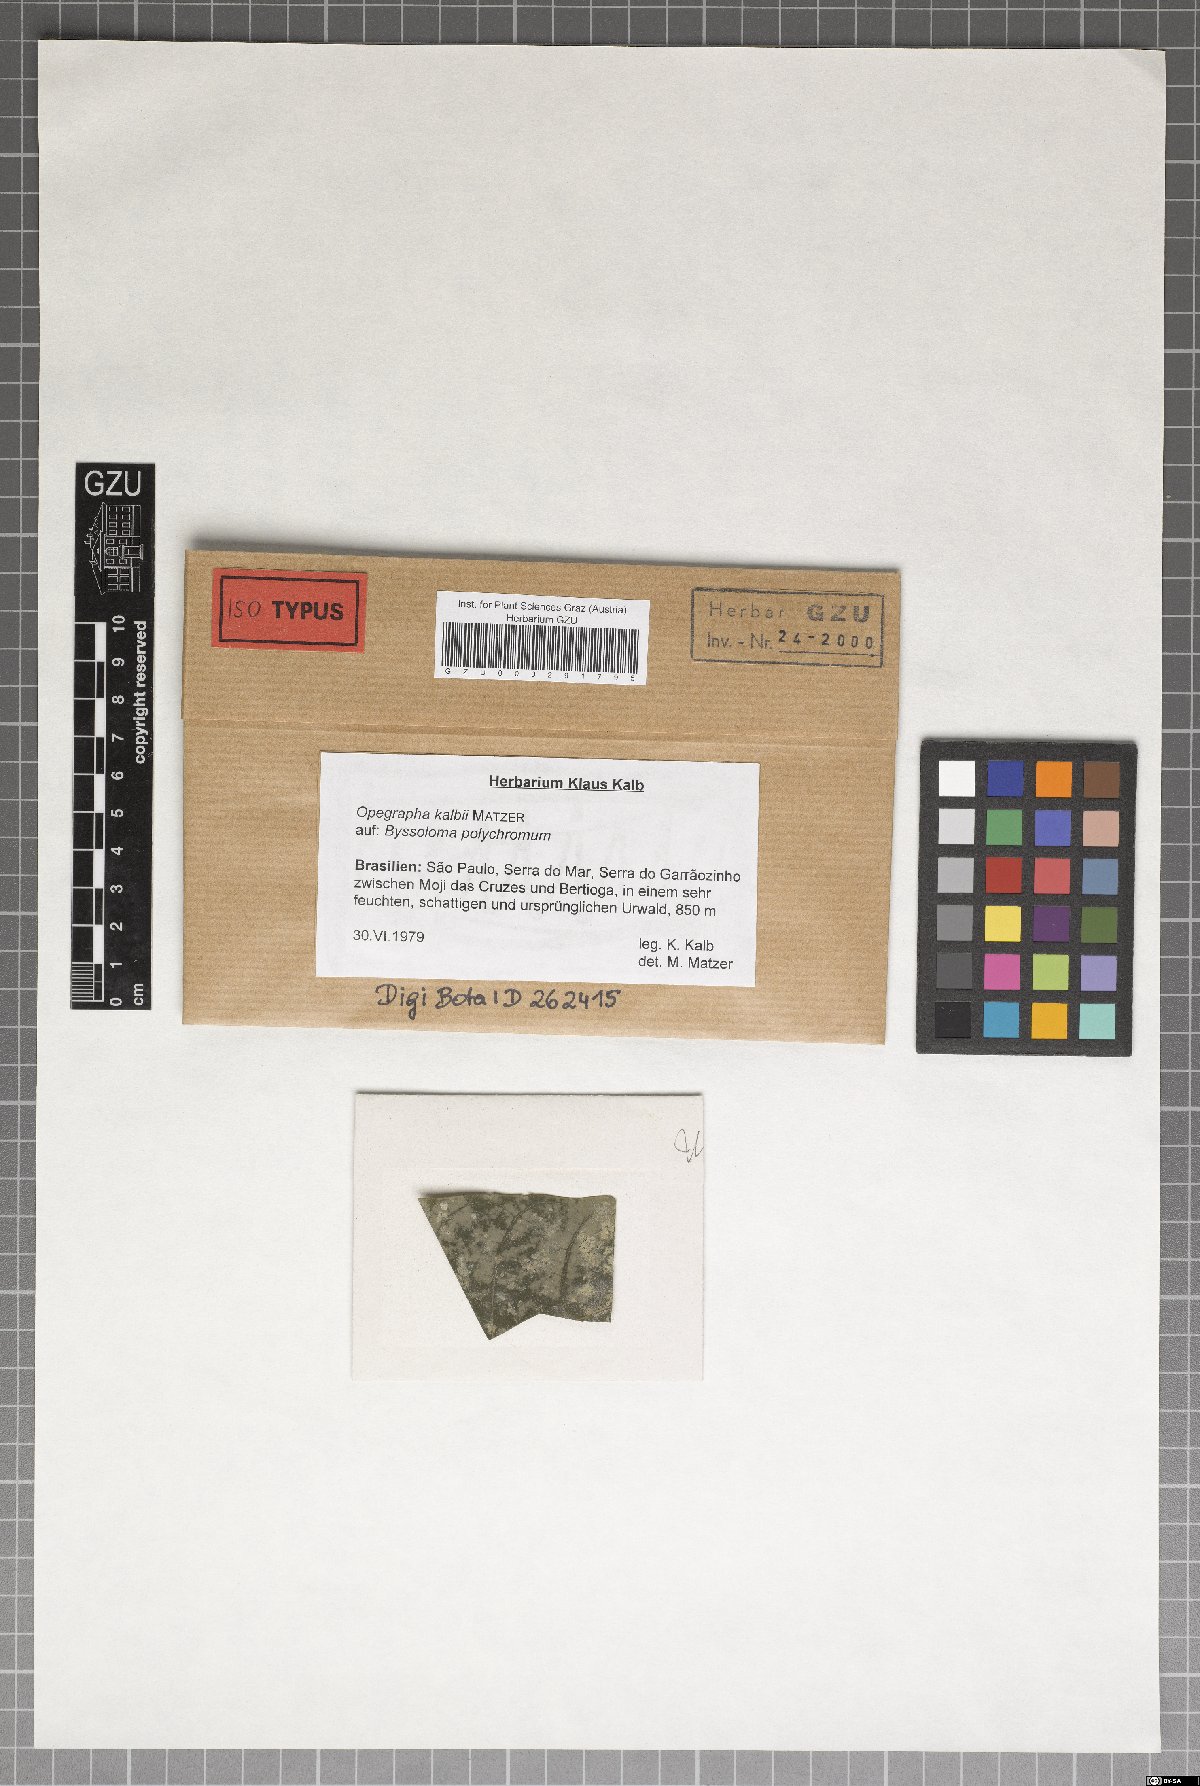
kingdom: Fungi
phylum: Ascomycota
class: Arthoniomycetes
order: Arthoniales
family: Opegraphaceae
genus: Opegrapha
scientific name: Opegrapha
